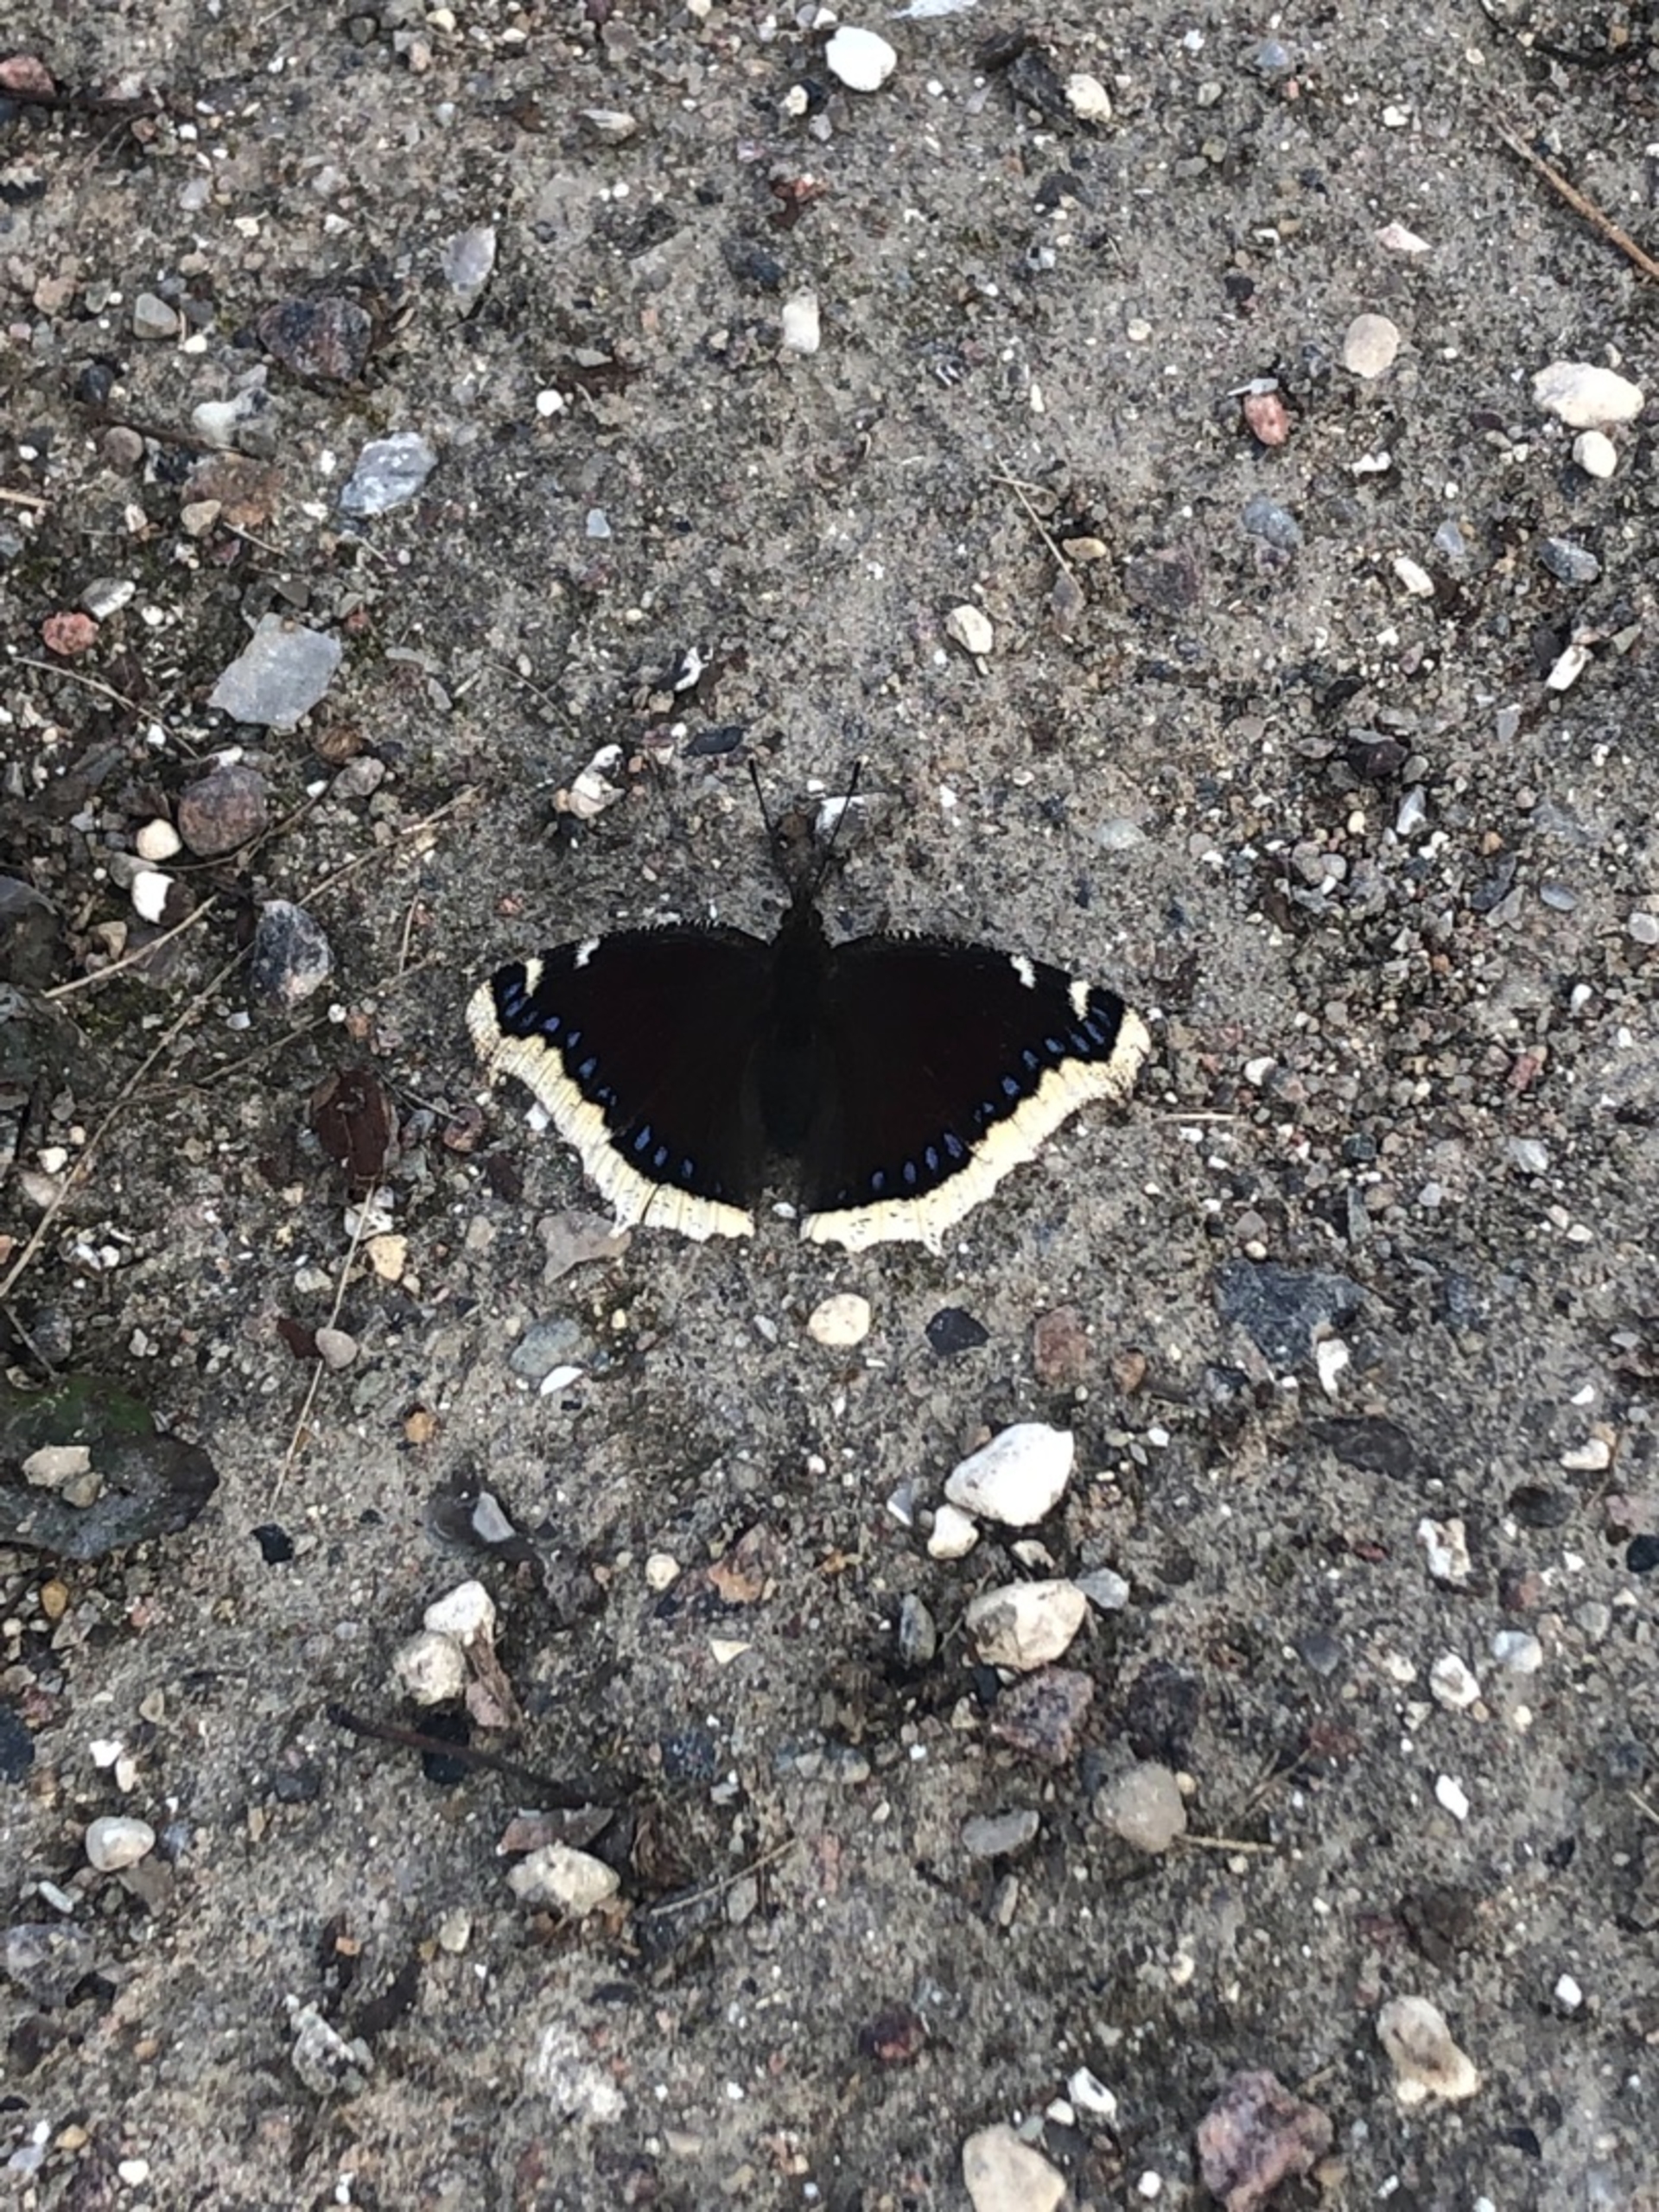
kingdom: Animalia
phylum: Arthropoda
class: Insecta
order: Lepidoptera
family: Nymphalidae
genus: Nymphalis
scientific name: Nymphalis antiopa
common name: Sørgekåbe
